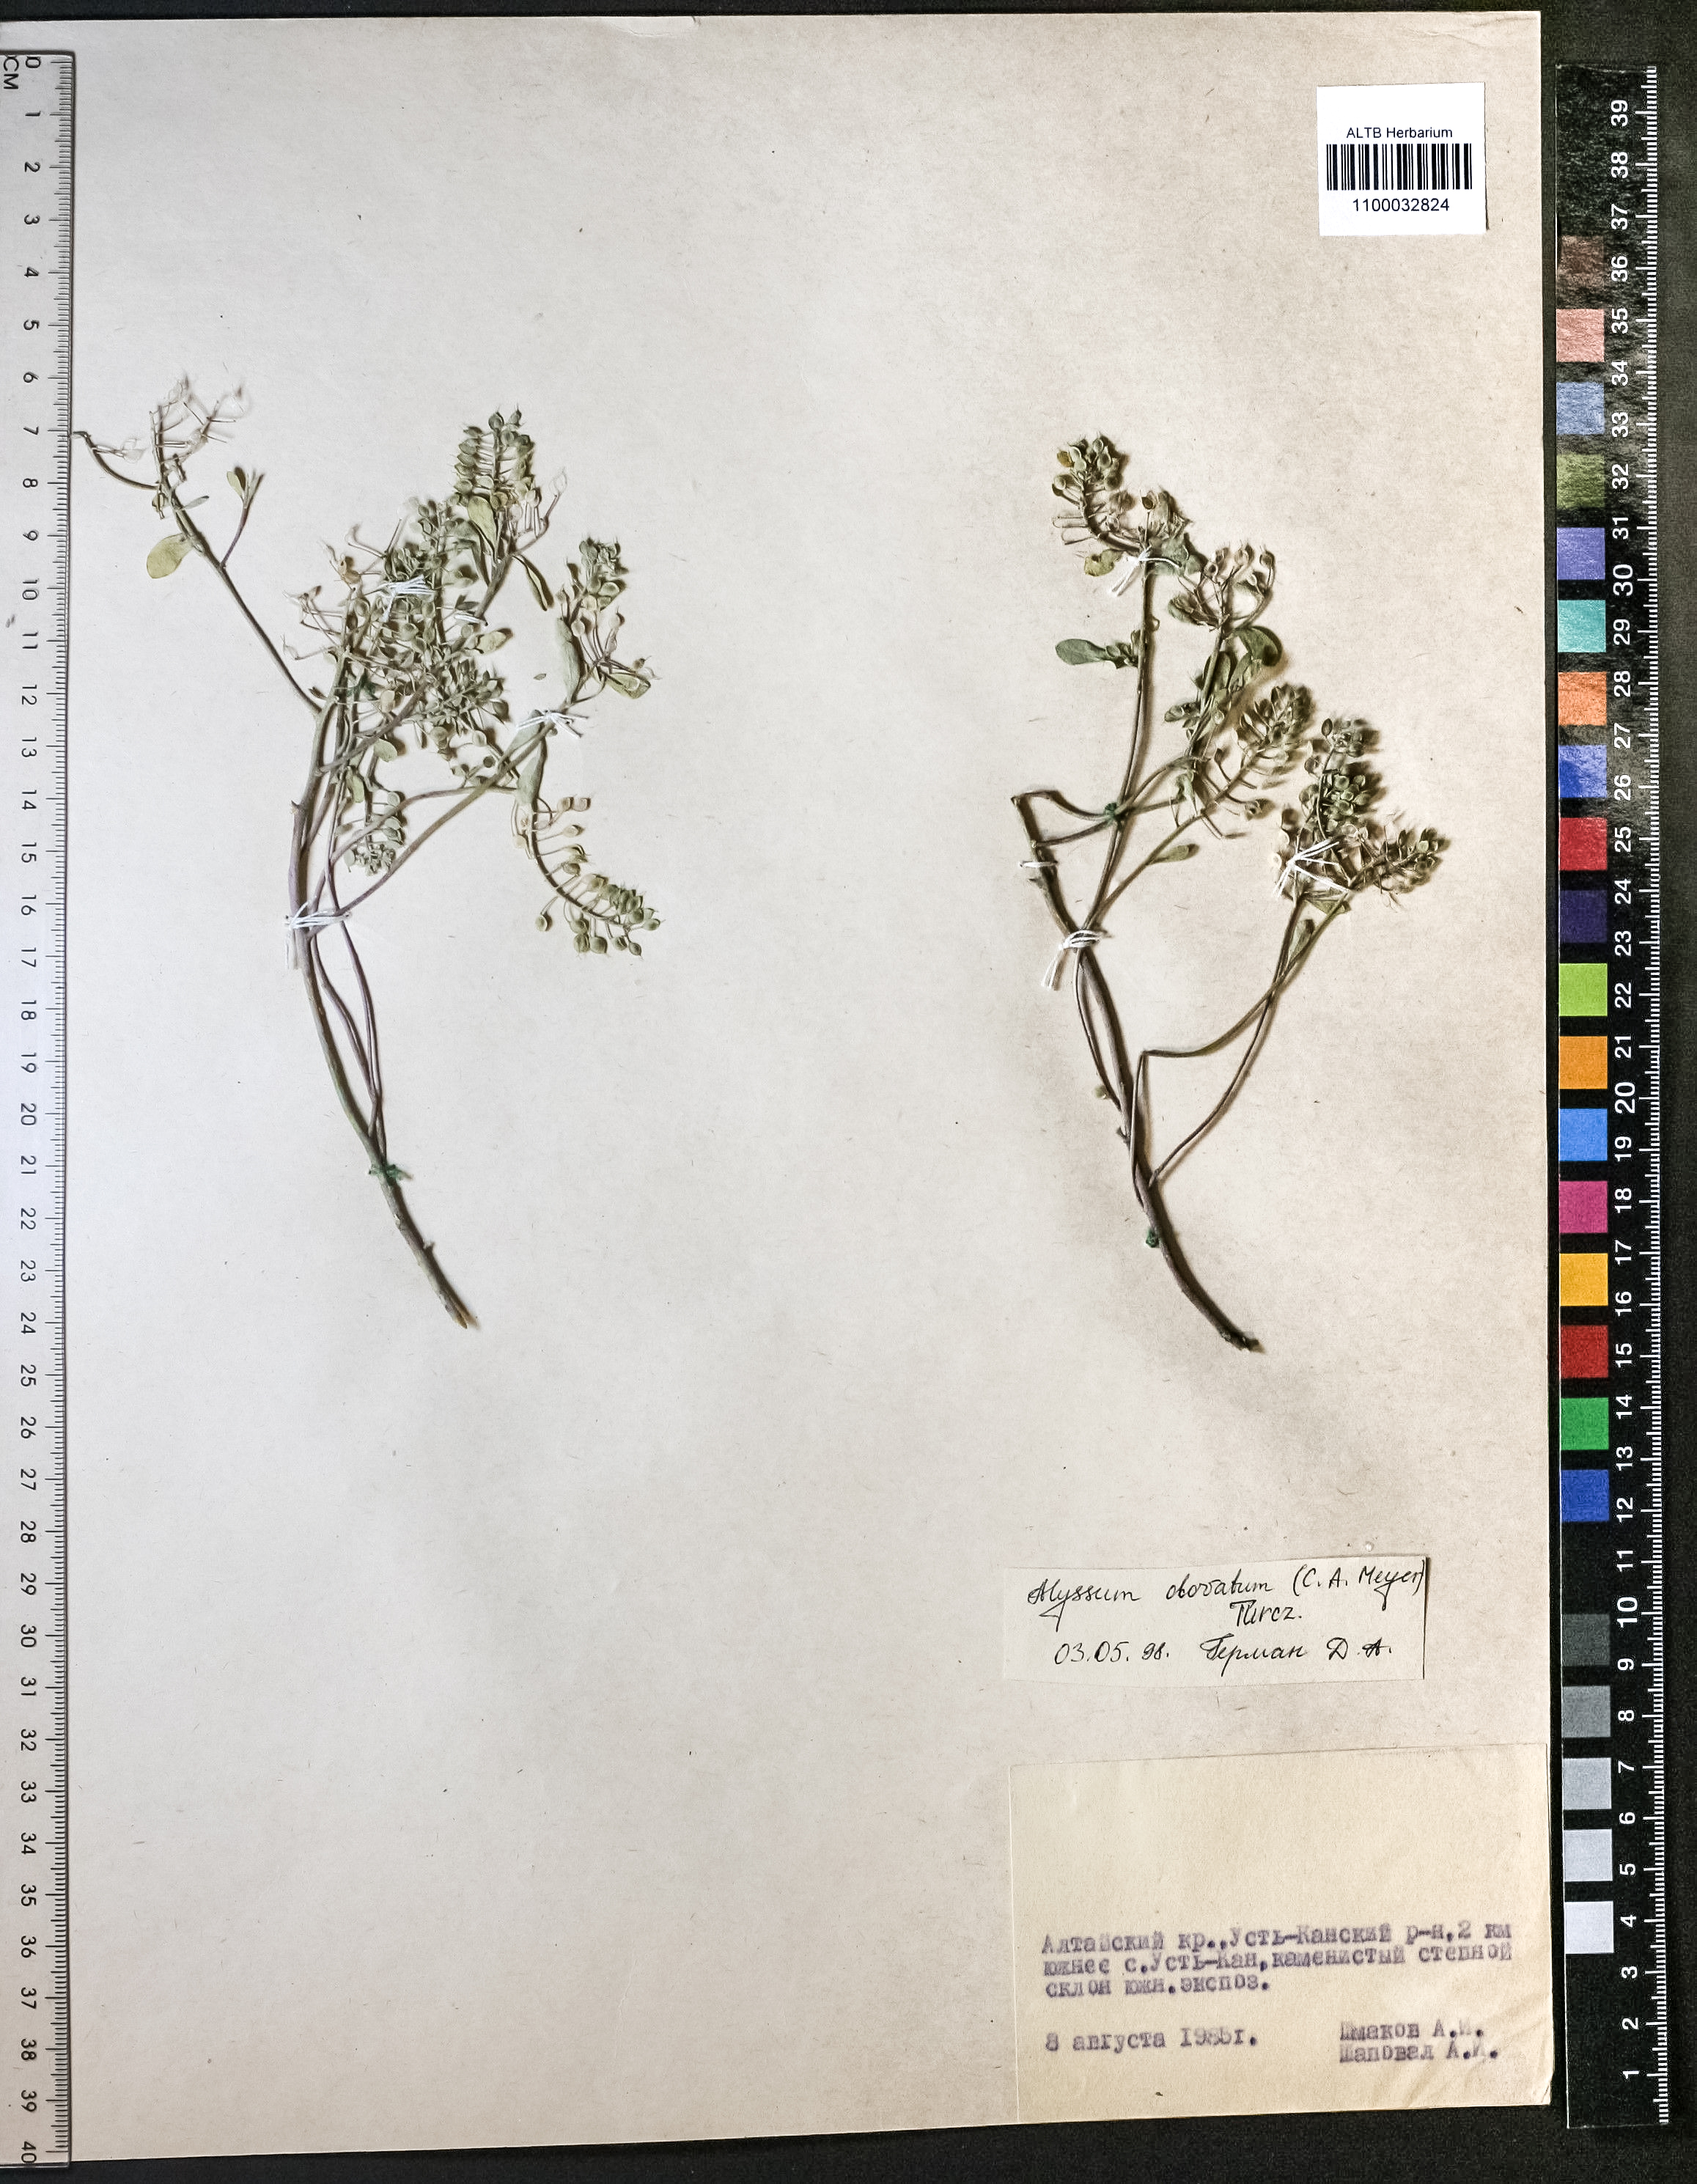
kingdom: Plantae
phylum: Tracheophyta
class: Magnoliopsida
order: Brassicales
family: Brassicaceae
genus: Odontarrhena
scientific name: Odontarrhena obovata
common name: American alyssum
